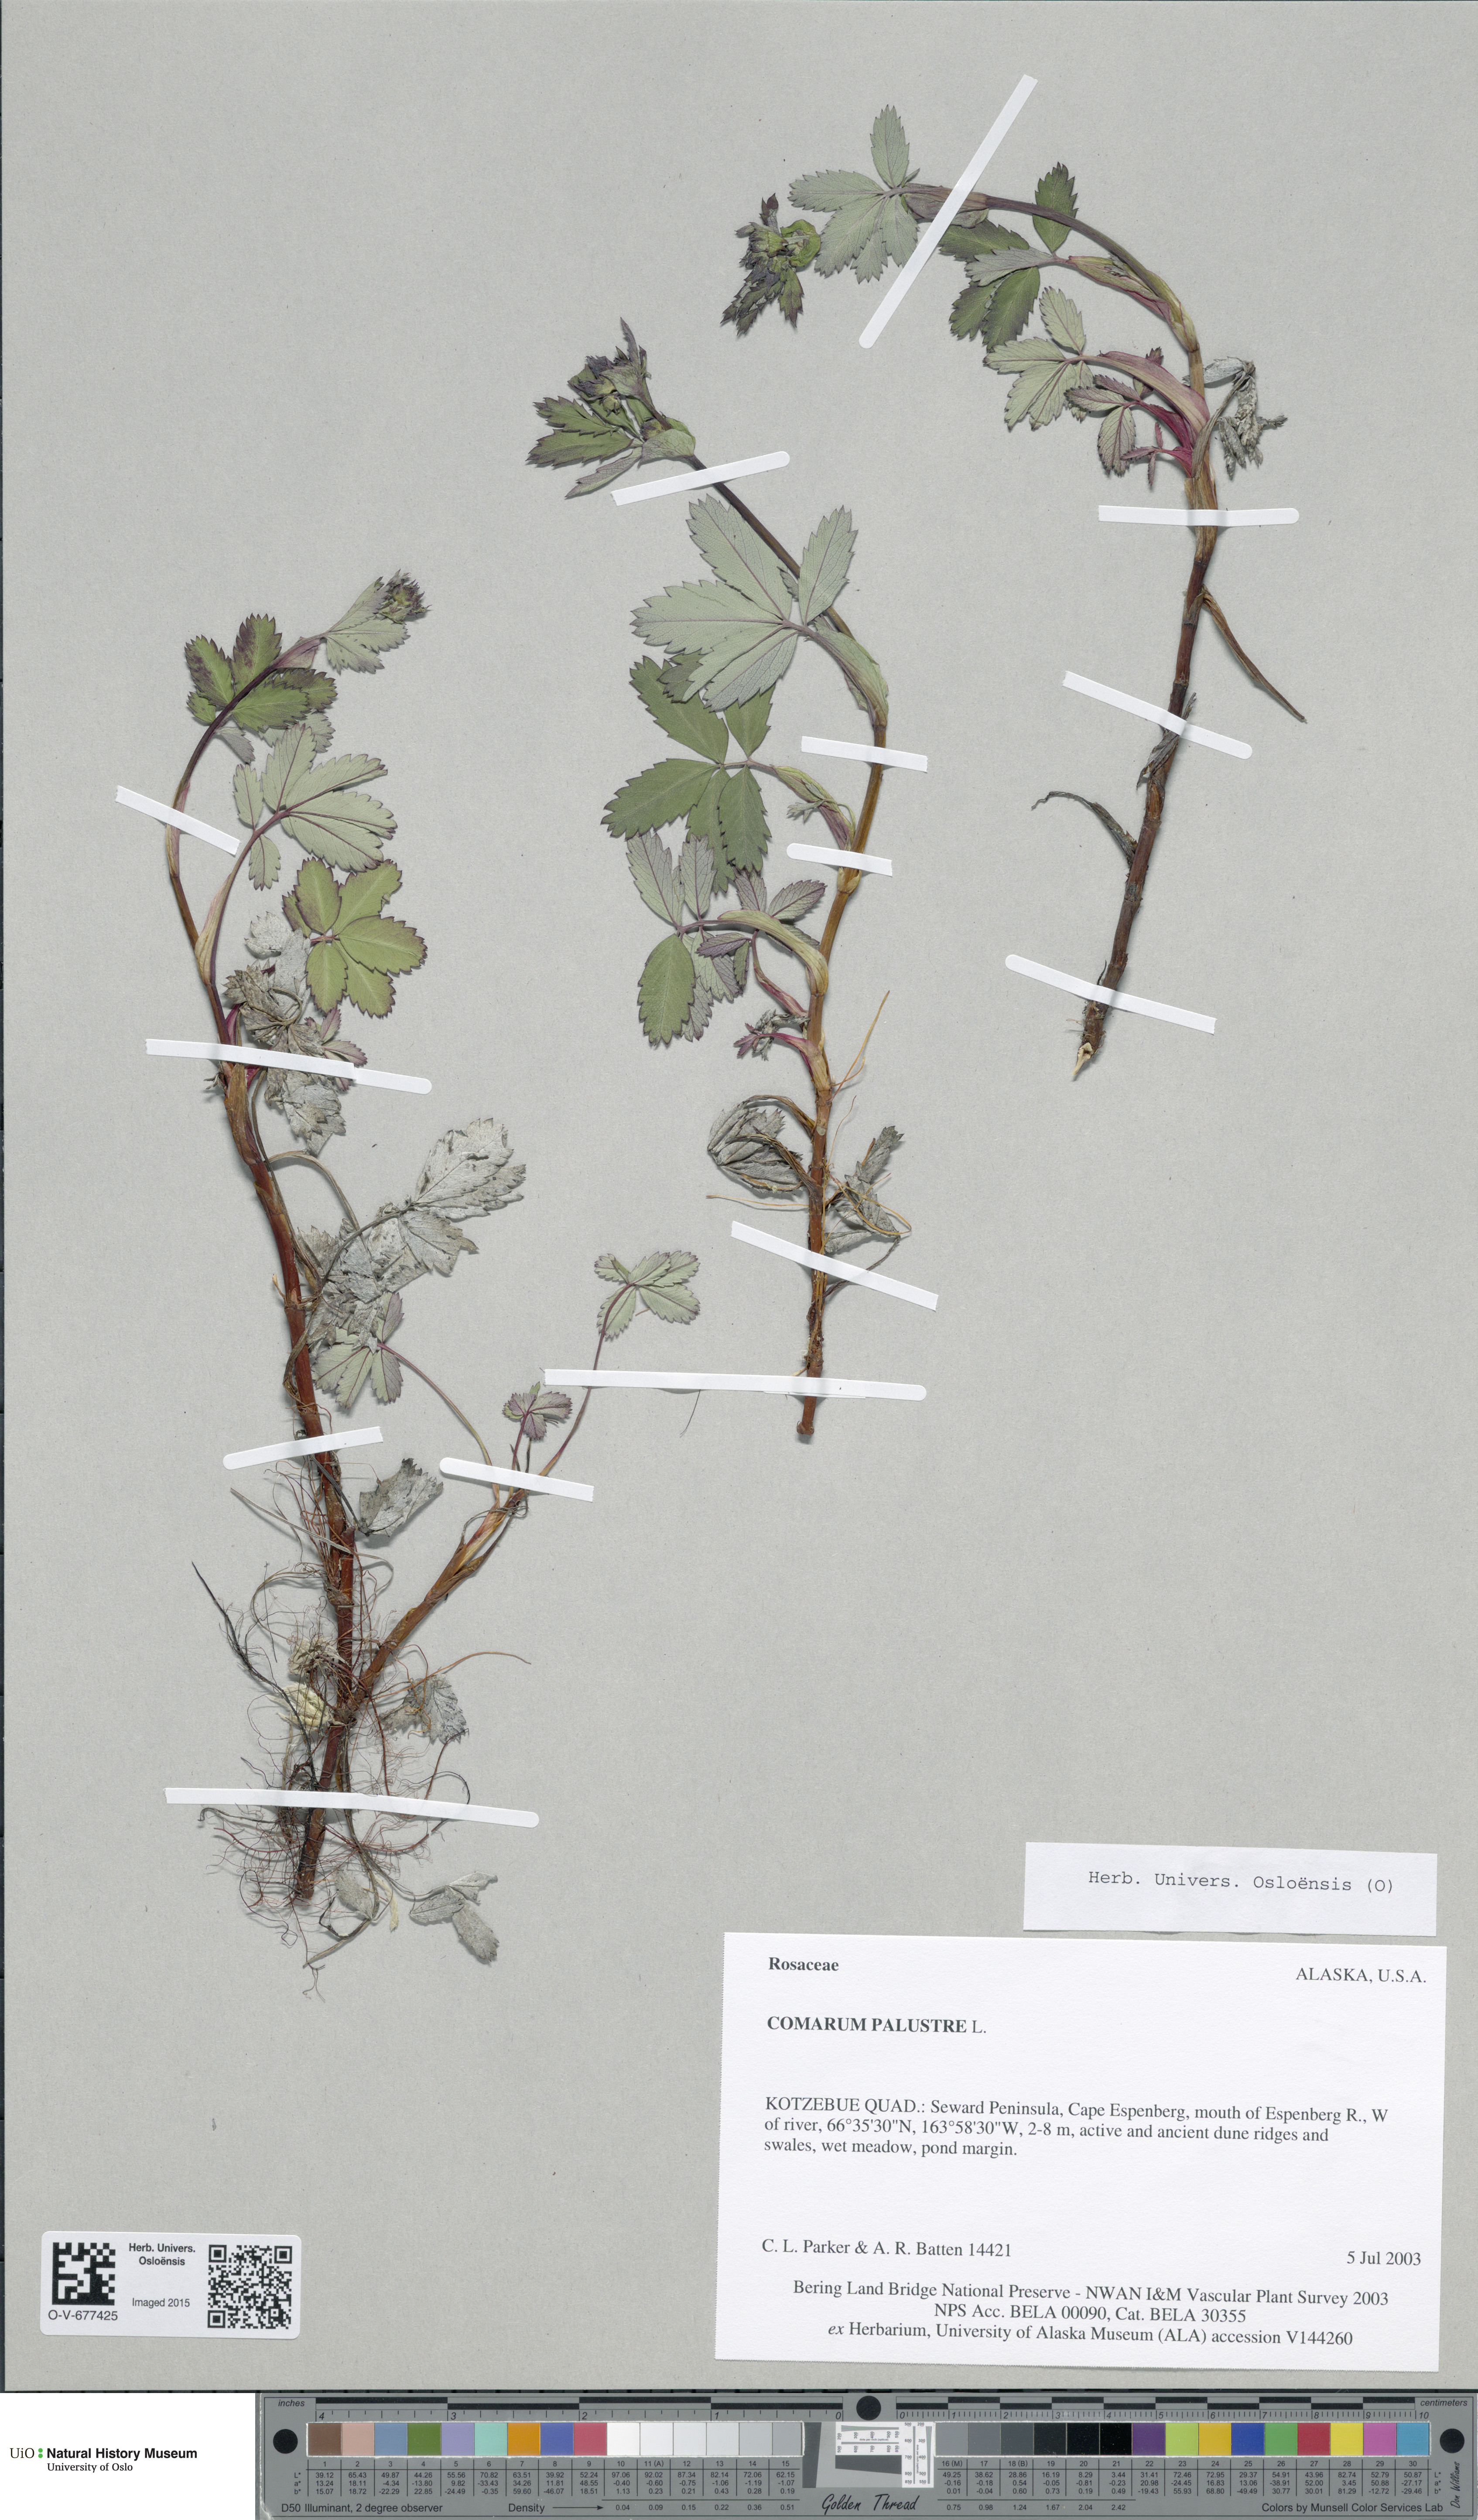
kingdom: Plantae
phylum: Tracheophyta
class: Magnoliopsida
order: Rosales
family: Rosaceae
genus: Comarum
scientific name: Comarum palustre
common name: Marsh cinquefoil
